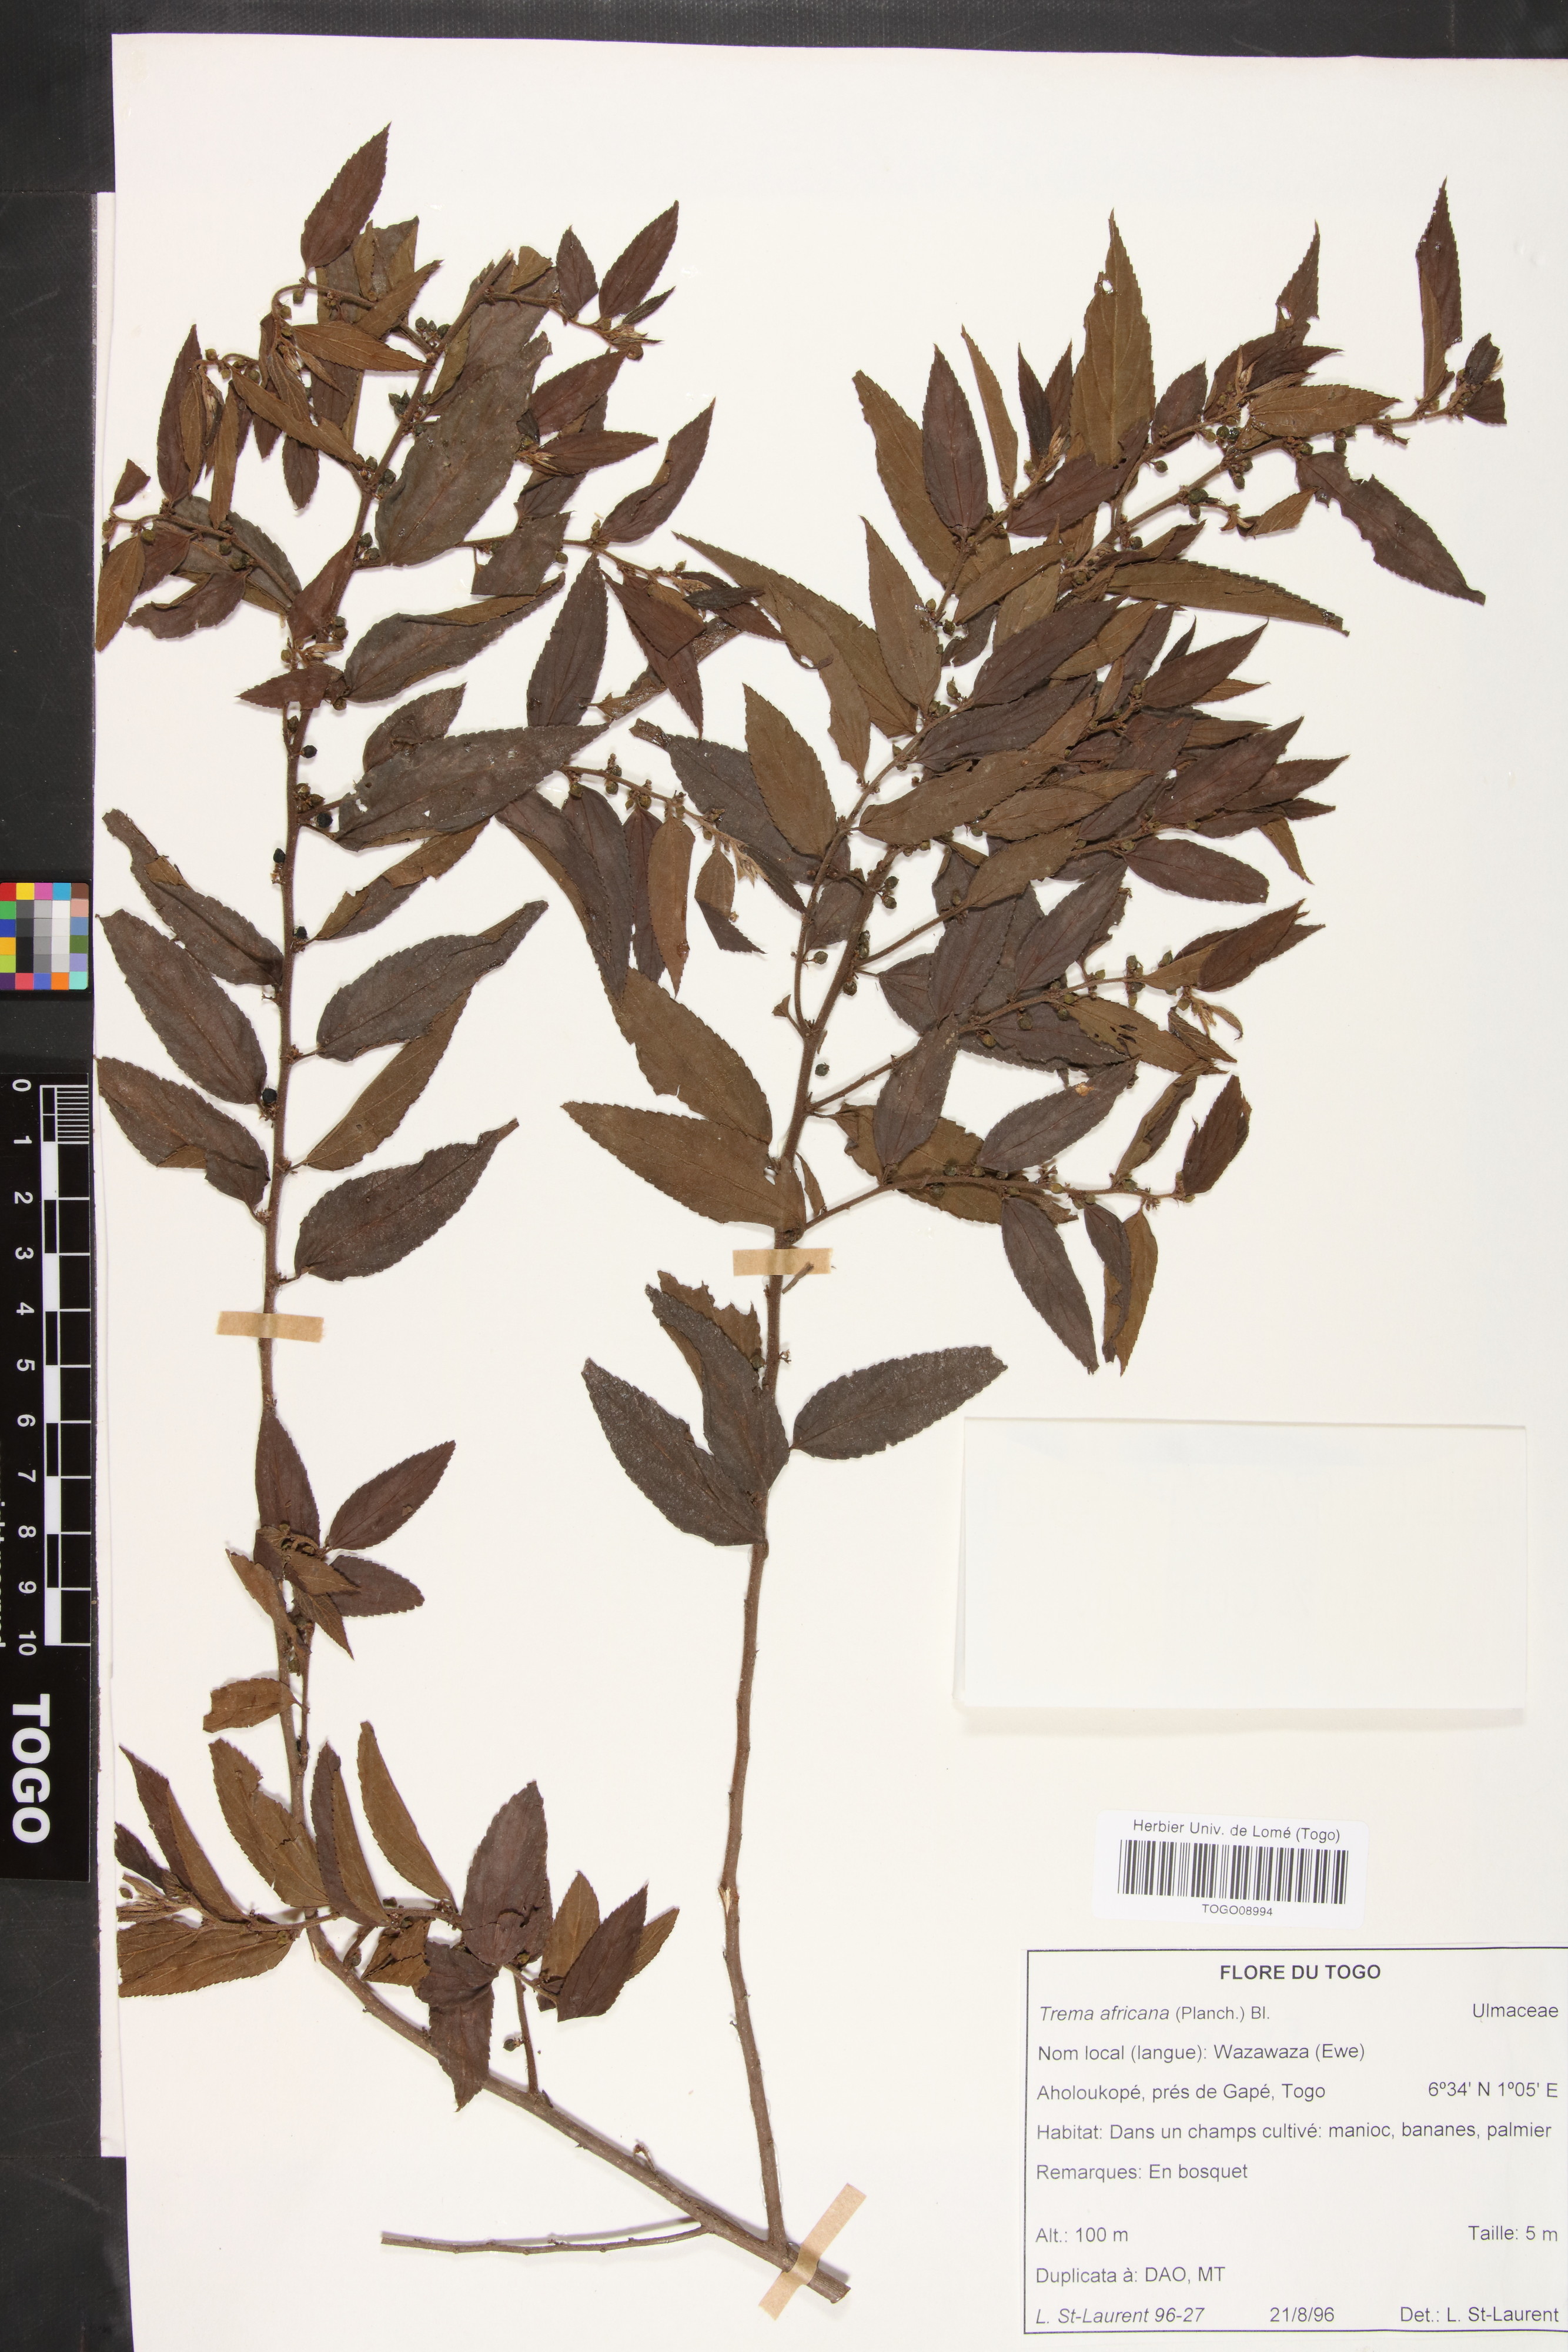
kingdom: Plantae
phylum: Tracheophyta
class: Magnoliopsida
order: Rosales
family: Cannabaceae
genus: Trema
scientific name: Trema orientale
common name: Indian charcoal tree
